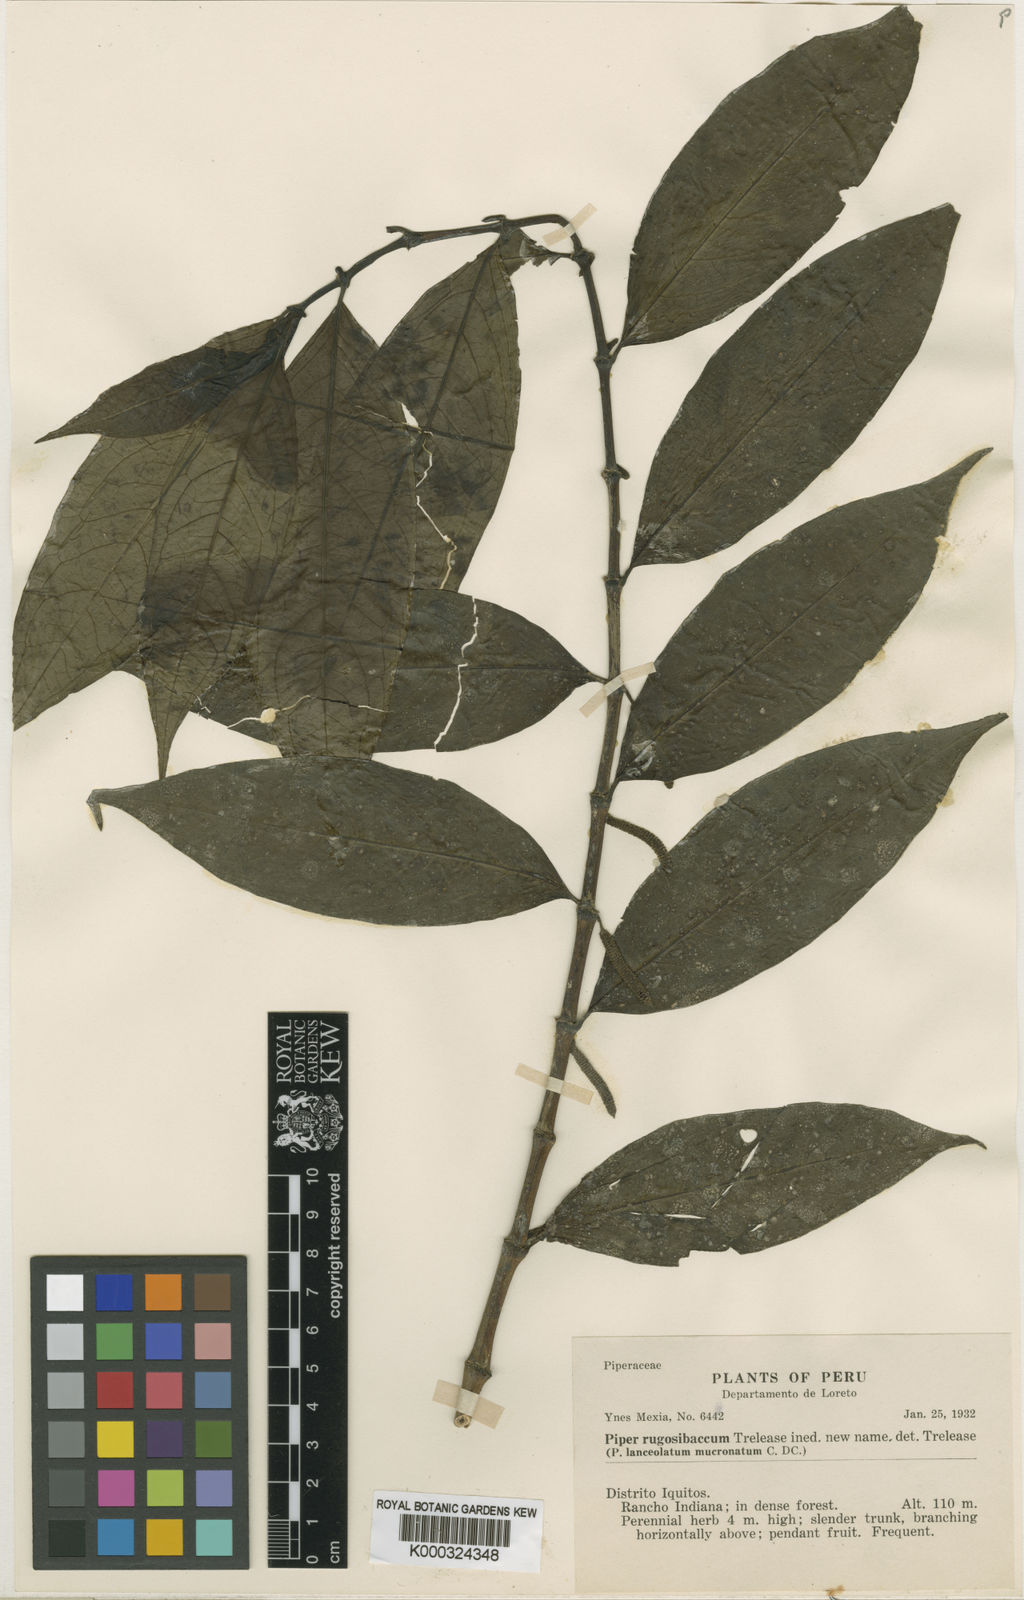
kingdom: Plantae
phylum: Tracheophyta
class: Magnoliopsida
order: Piperales
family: Piperaceae
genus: Piper
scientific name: Piper rugosibaccum
